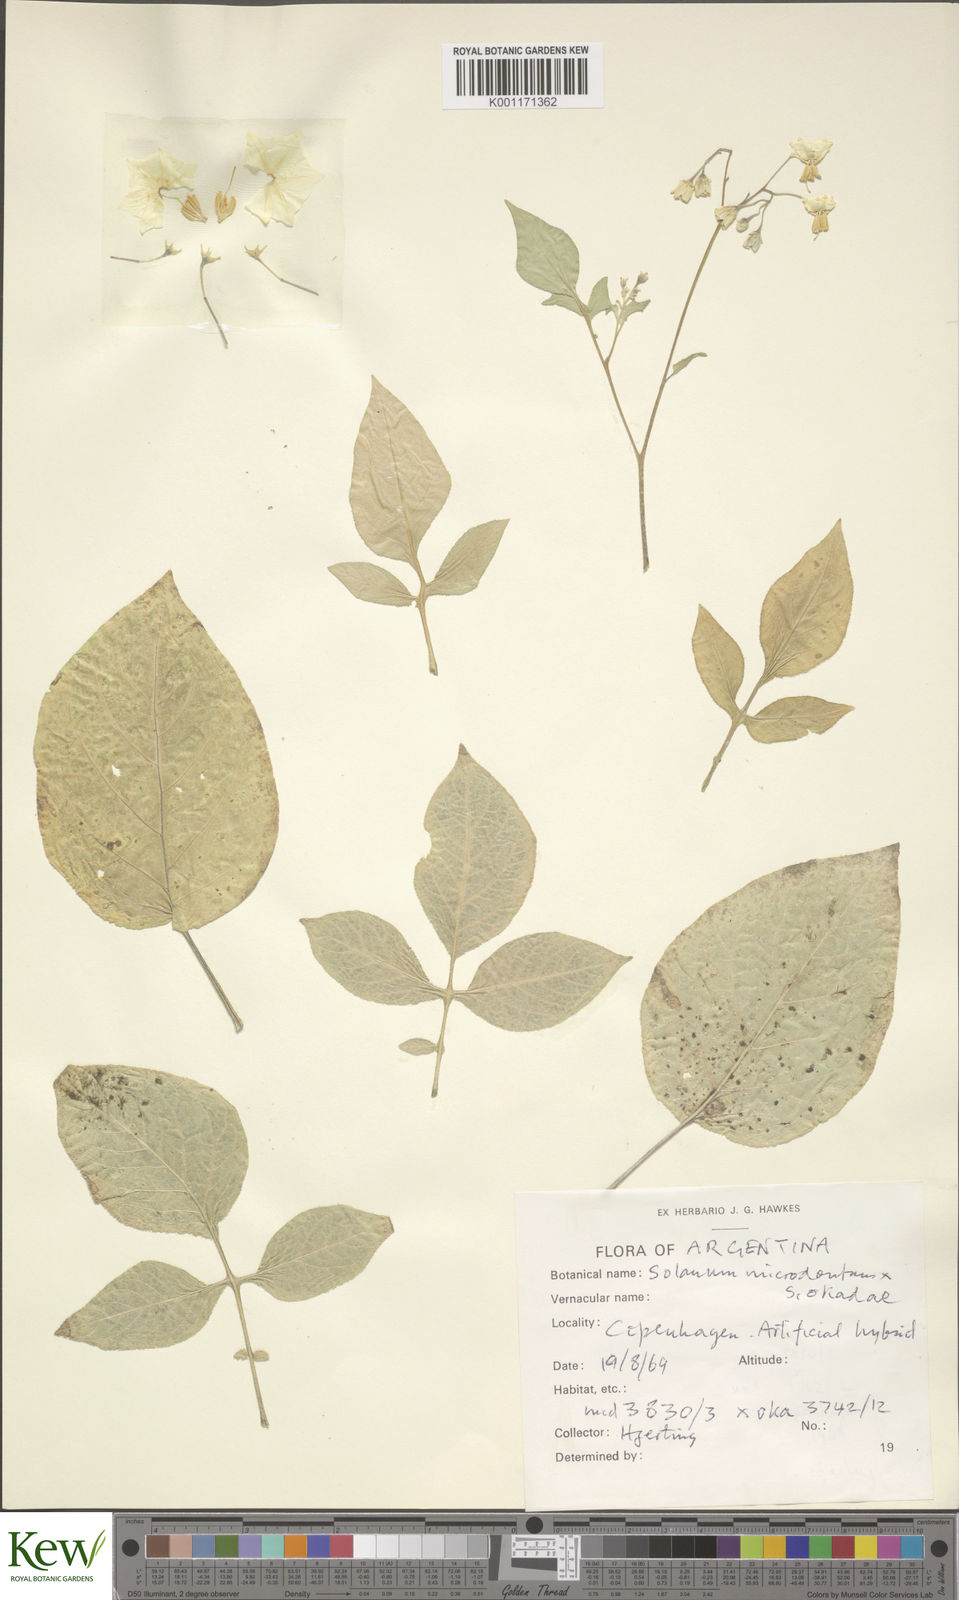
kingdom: Plantae
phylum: Tracheophyta
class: Magnoliopsida
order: Solanales
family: Solanaceae
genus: Solanum
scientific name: Solanum microdontum
